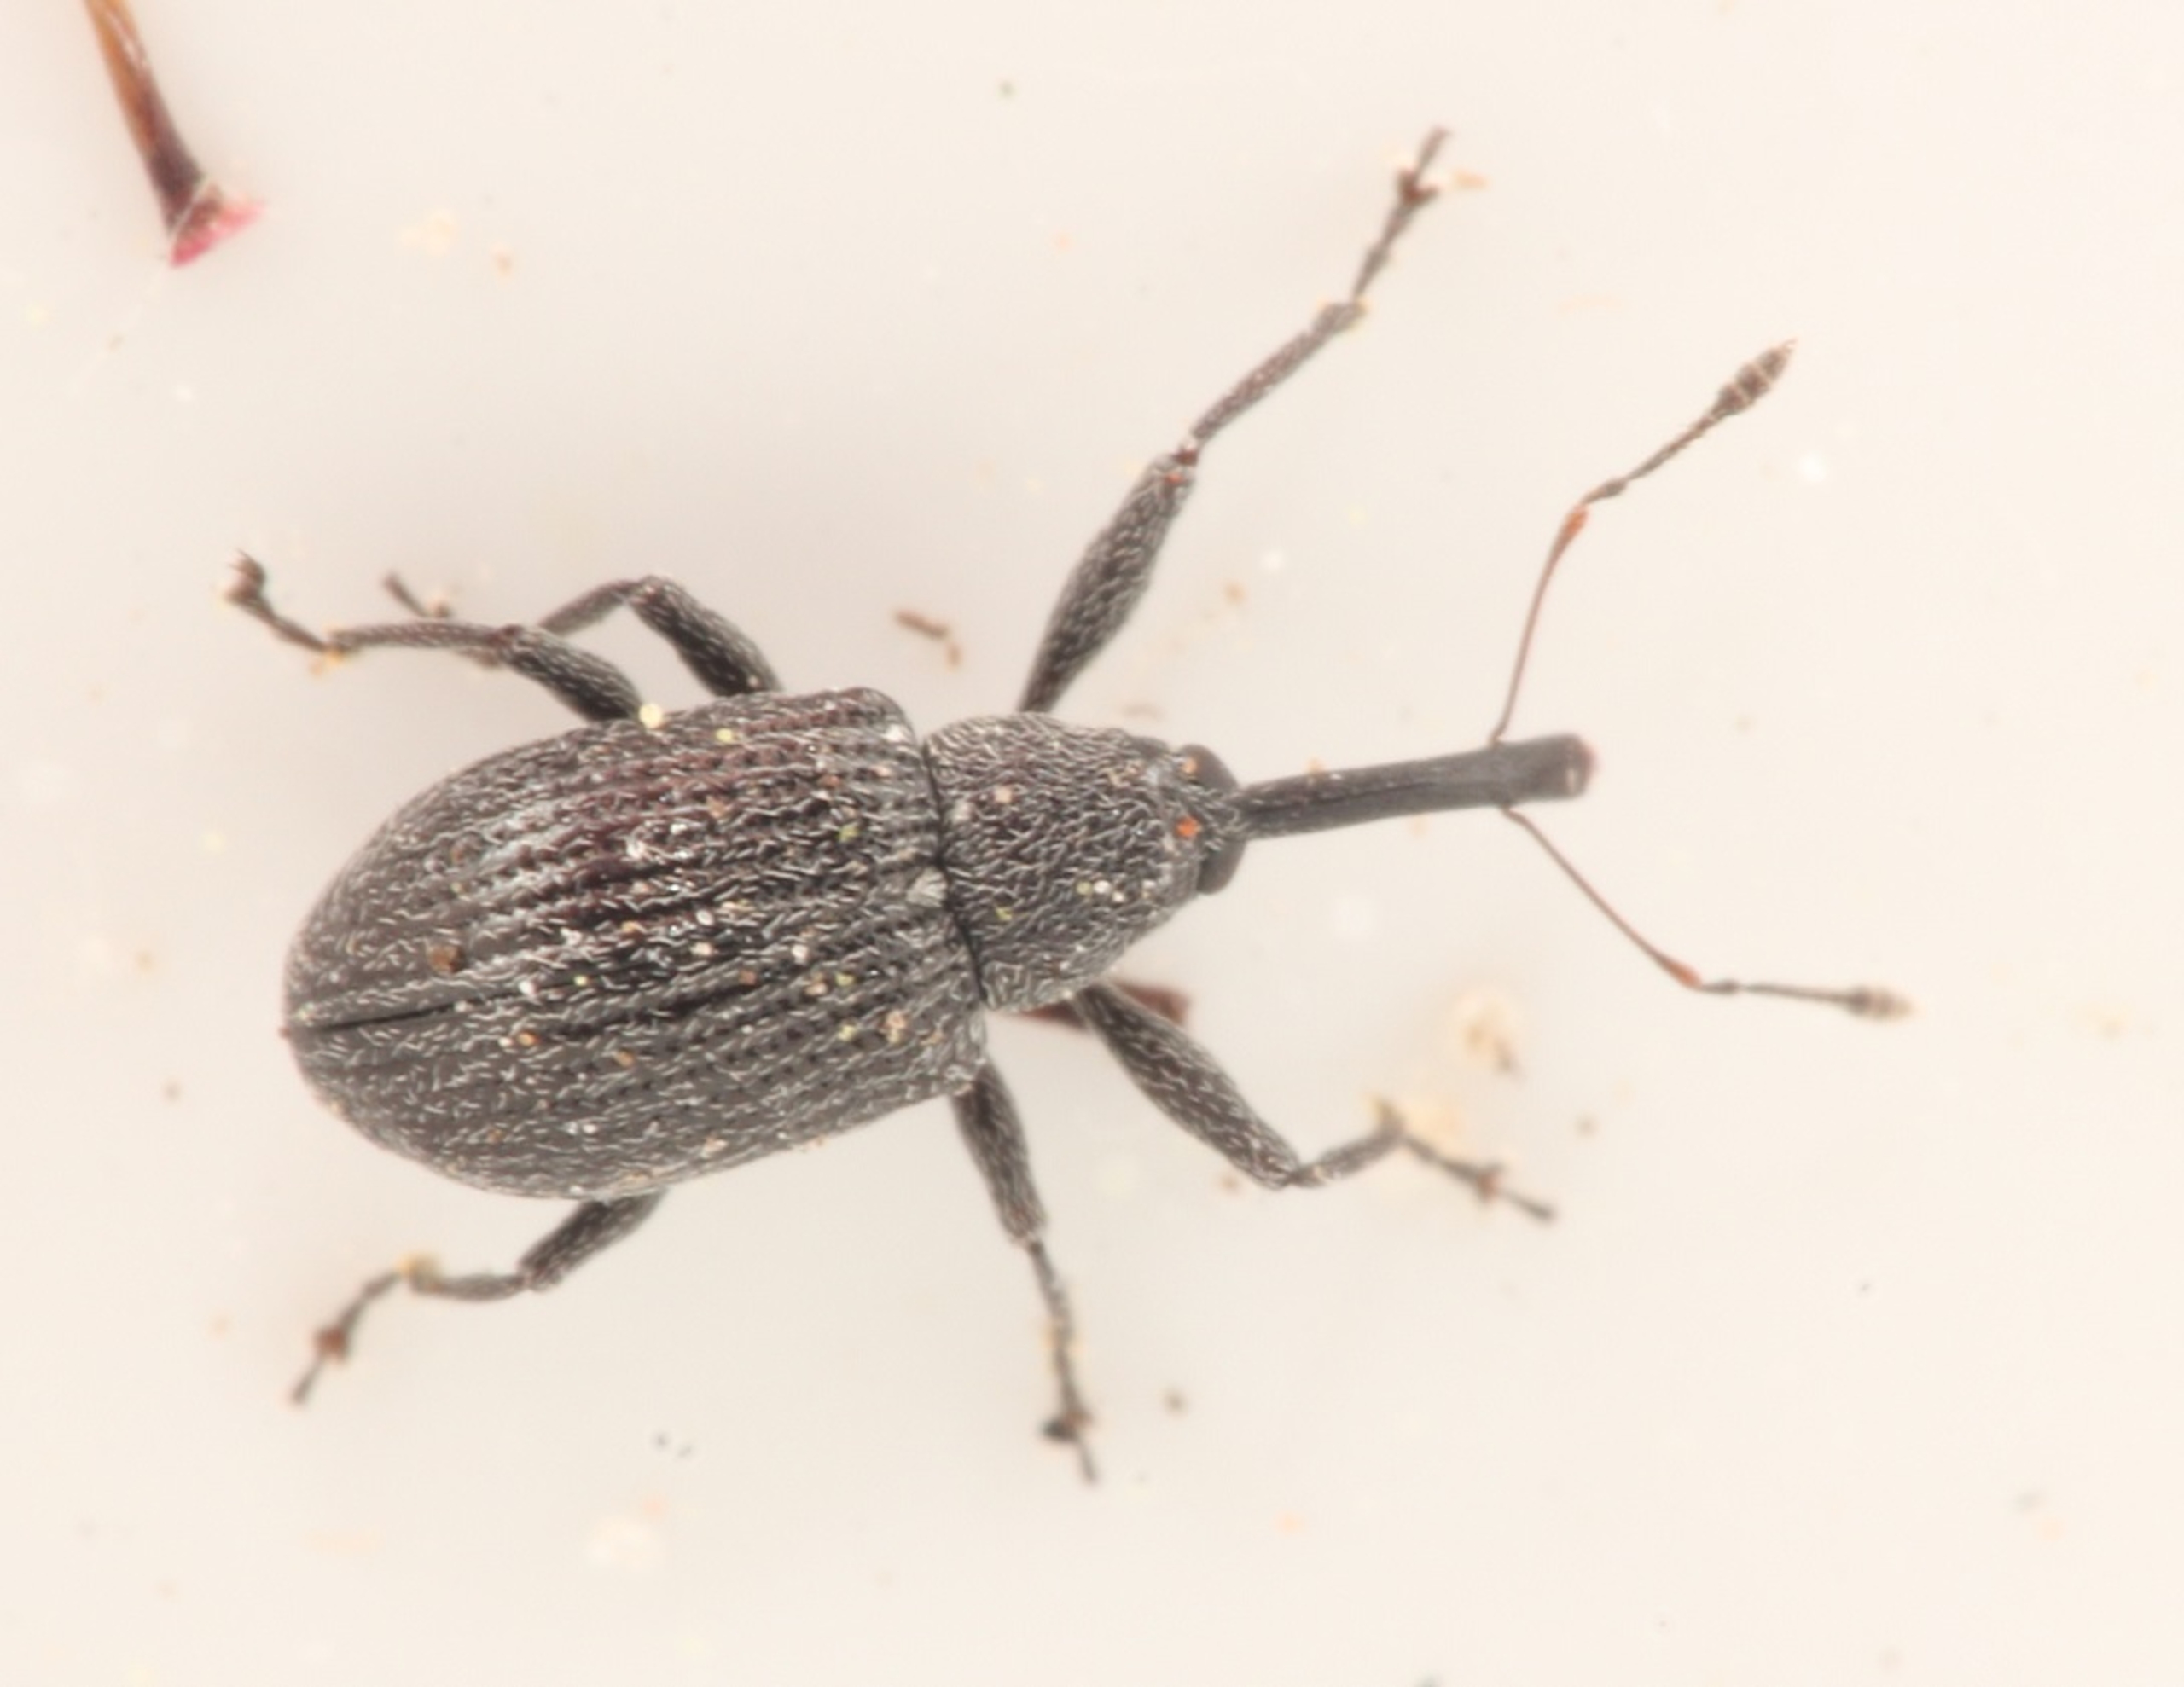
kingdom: Animalia
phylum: Arthropoda
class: Insecta
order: Coleoptera
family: Curculionidae
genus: Anthonomus
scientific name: Anthonomus rubi
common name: Hindbærsnudebille
